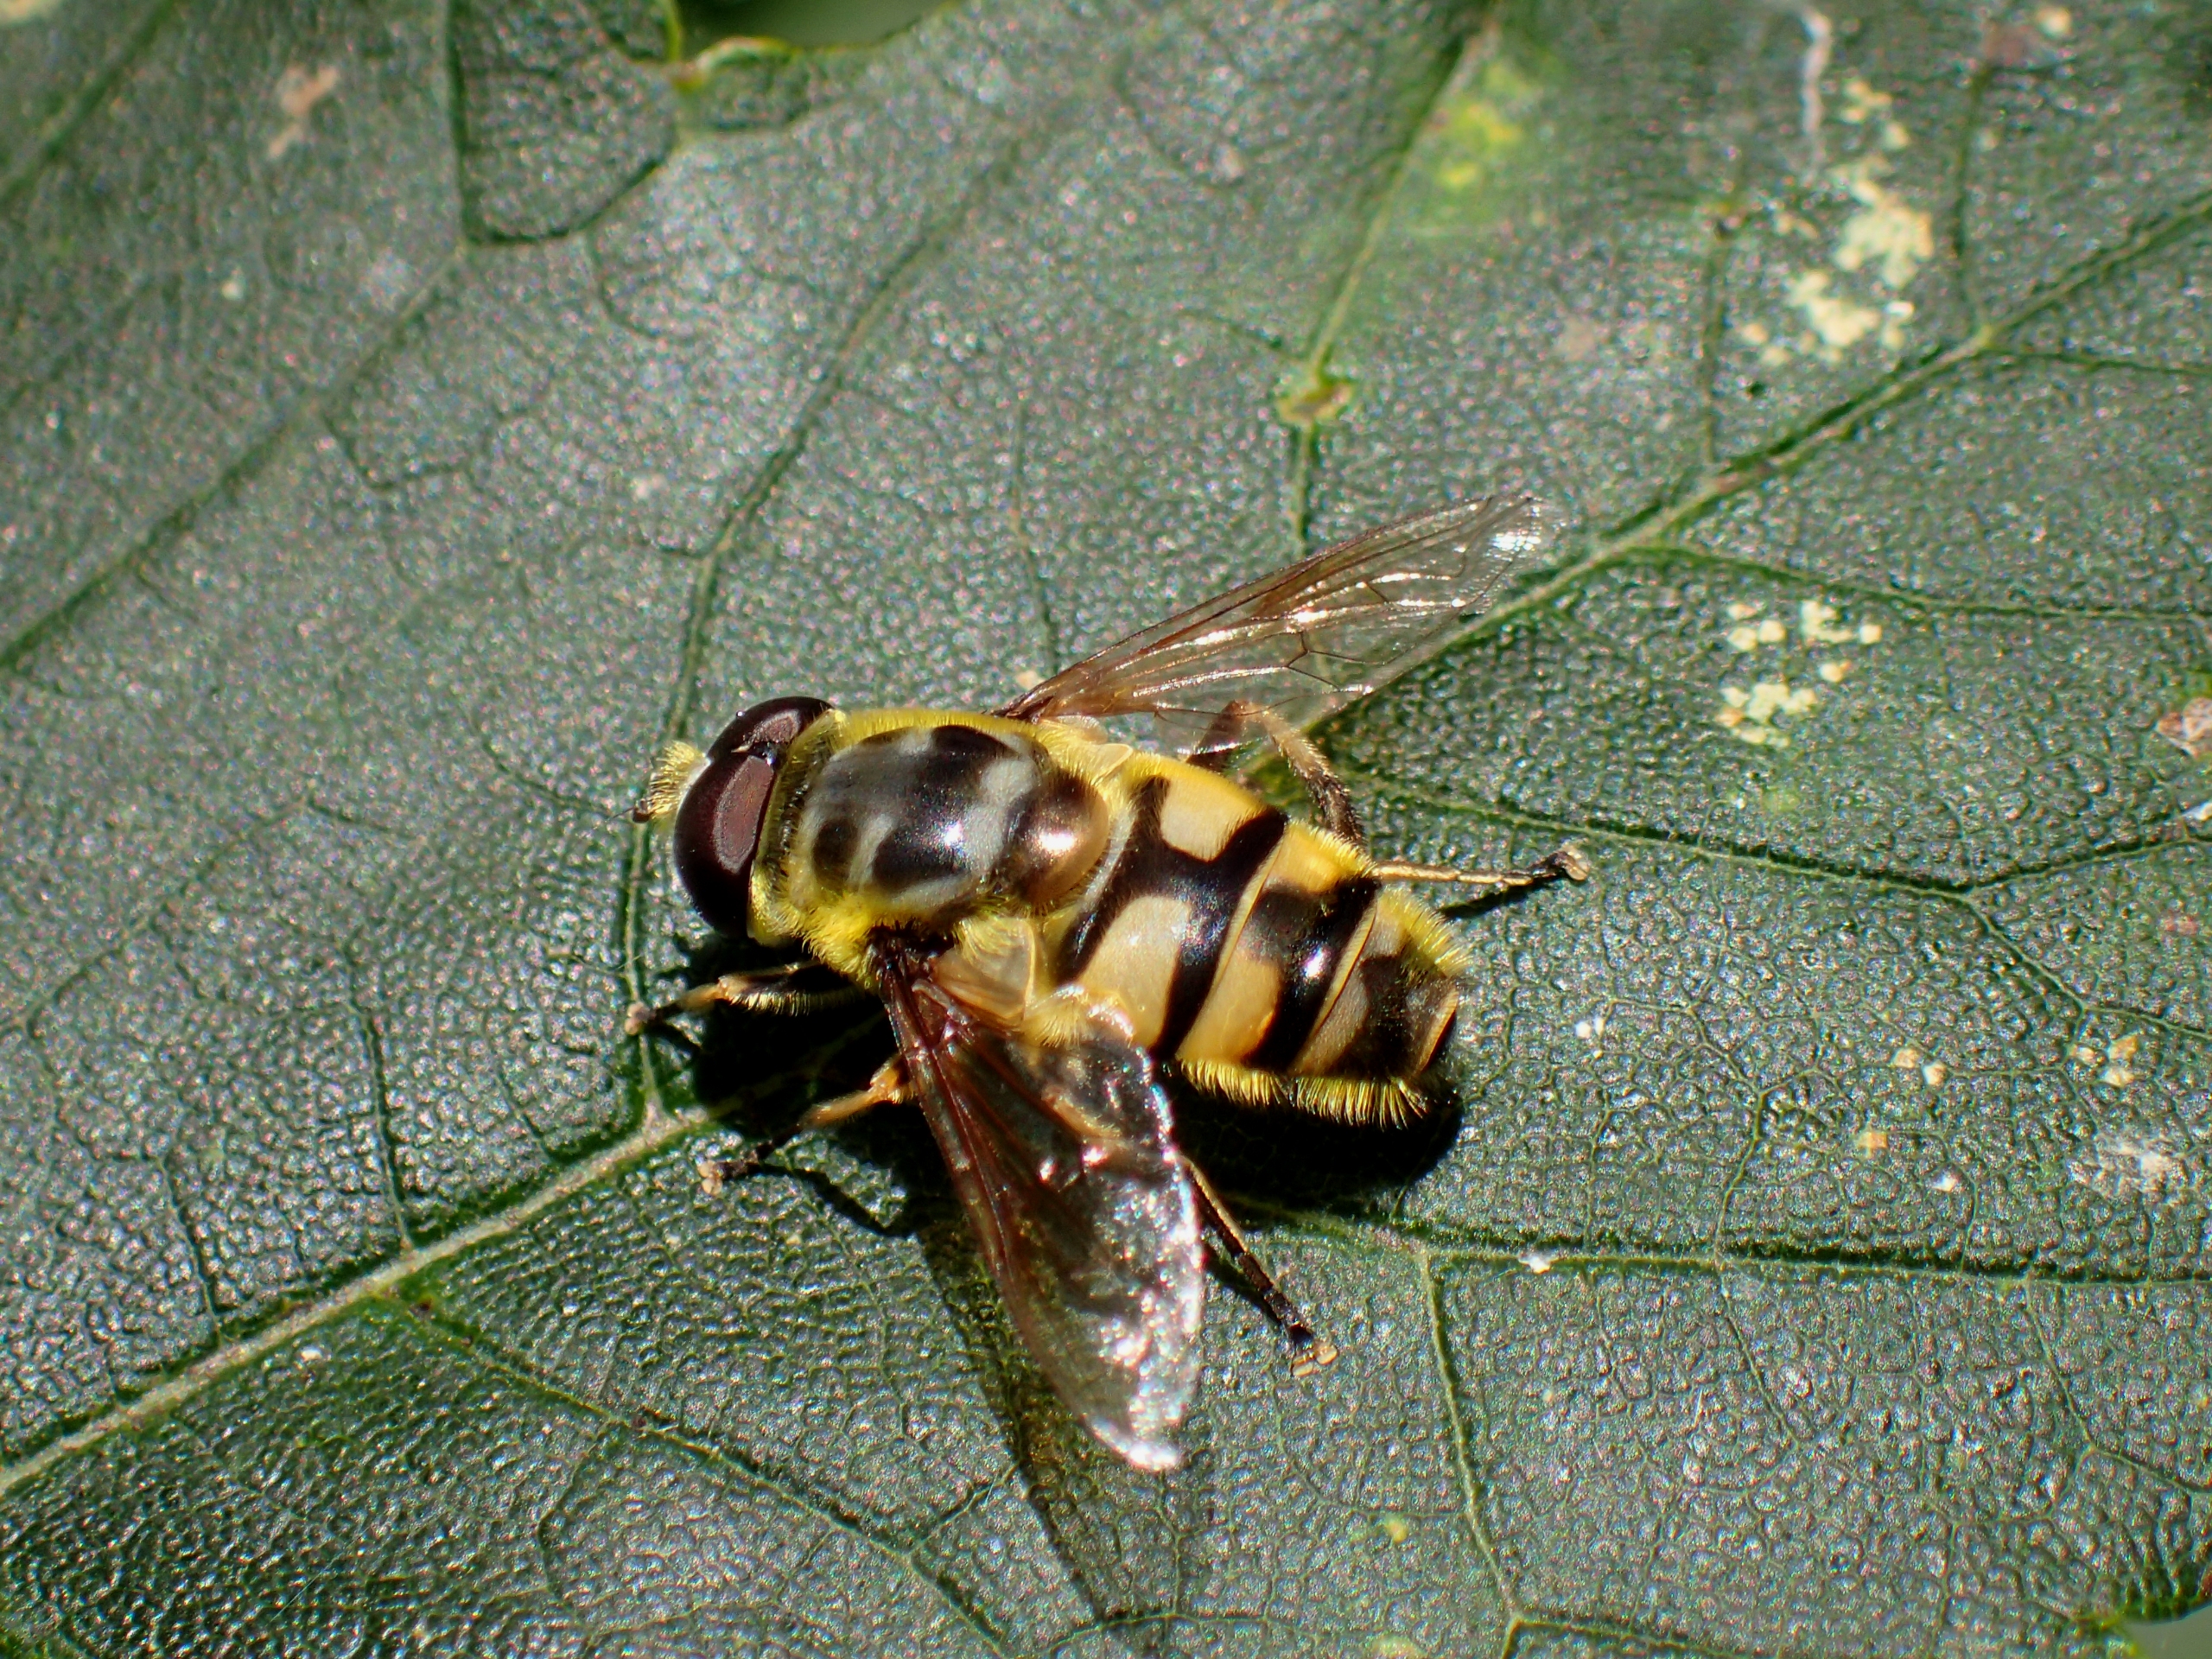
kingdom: Animalia
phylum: Arthropoda
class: Insecta
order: Diptera
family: Syrphidae
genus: Myathropa
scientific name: Myathropa florea
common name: Dødningehoved-svirreflue
